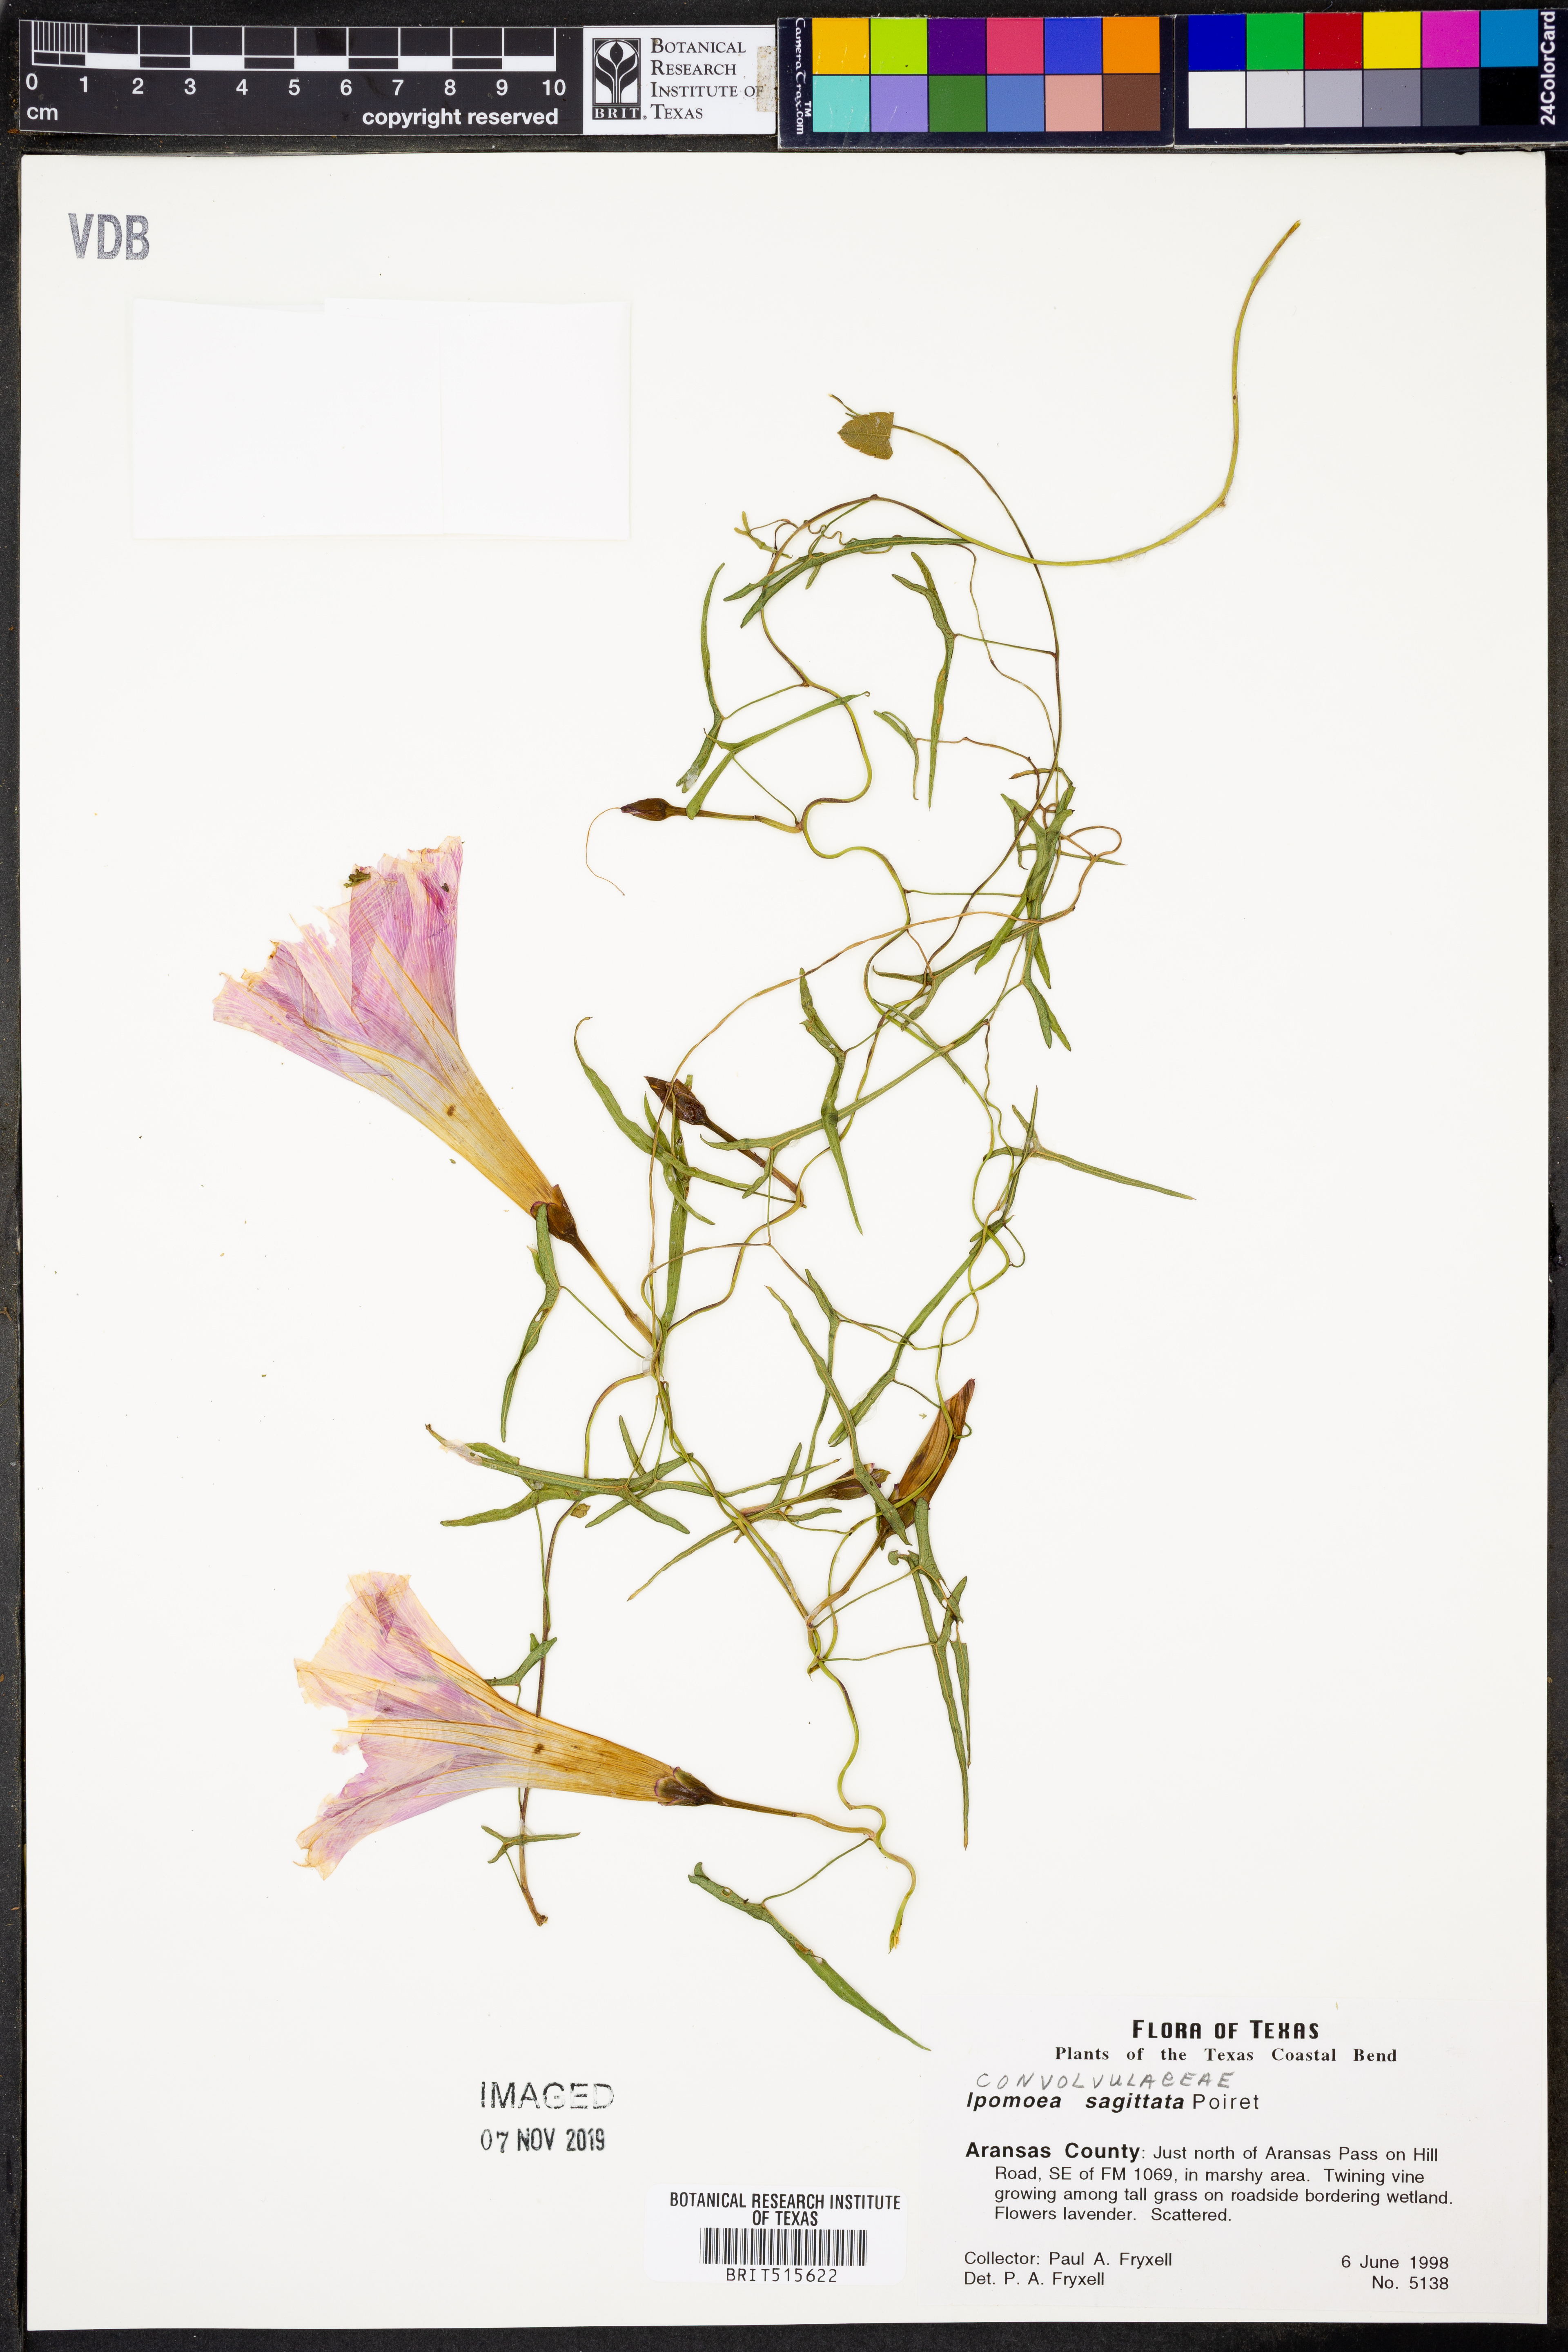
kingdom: Plantae
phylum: Tracheophyta
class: Magnoliopsida
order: Solanales
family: Convolvulaceae
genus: Ipomoea
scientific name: Ipomoea sinensis
